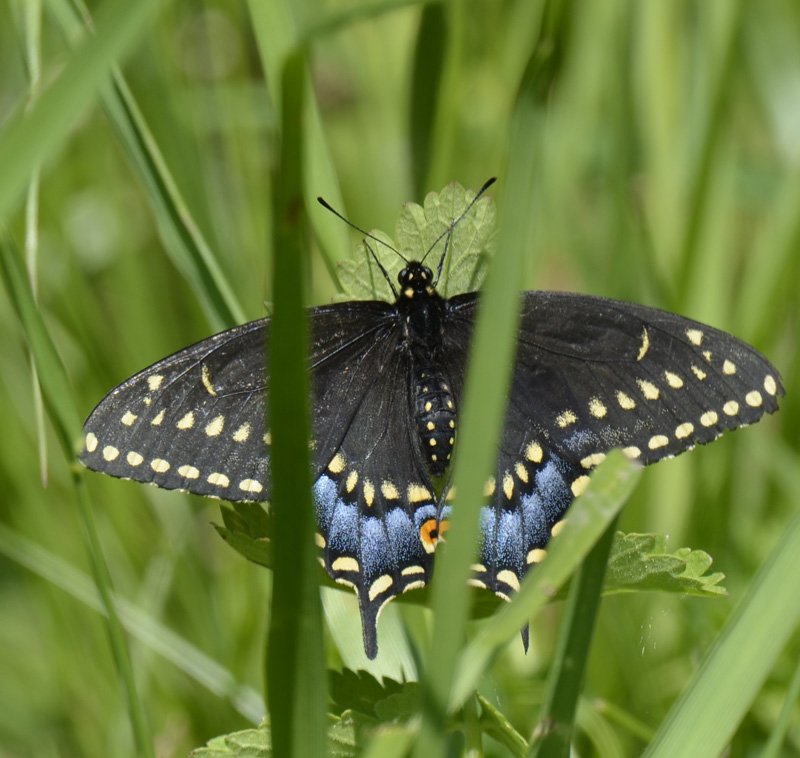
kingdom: Animalia
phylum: Arthropoda
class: Insecta
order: Lepidoptera
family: Papilionidae
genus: Papilio
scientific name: Papilio polyxenes
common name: Black Swallowtail
